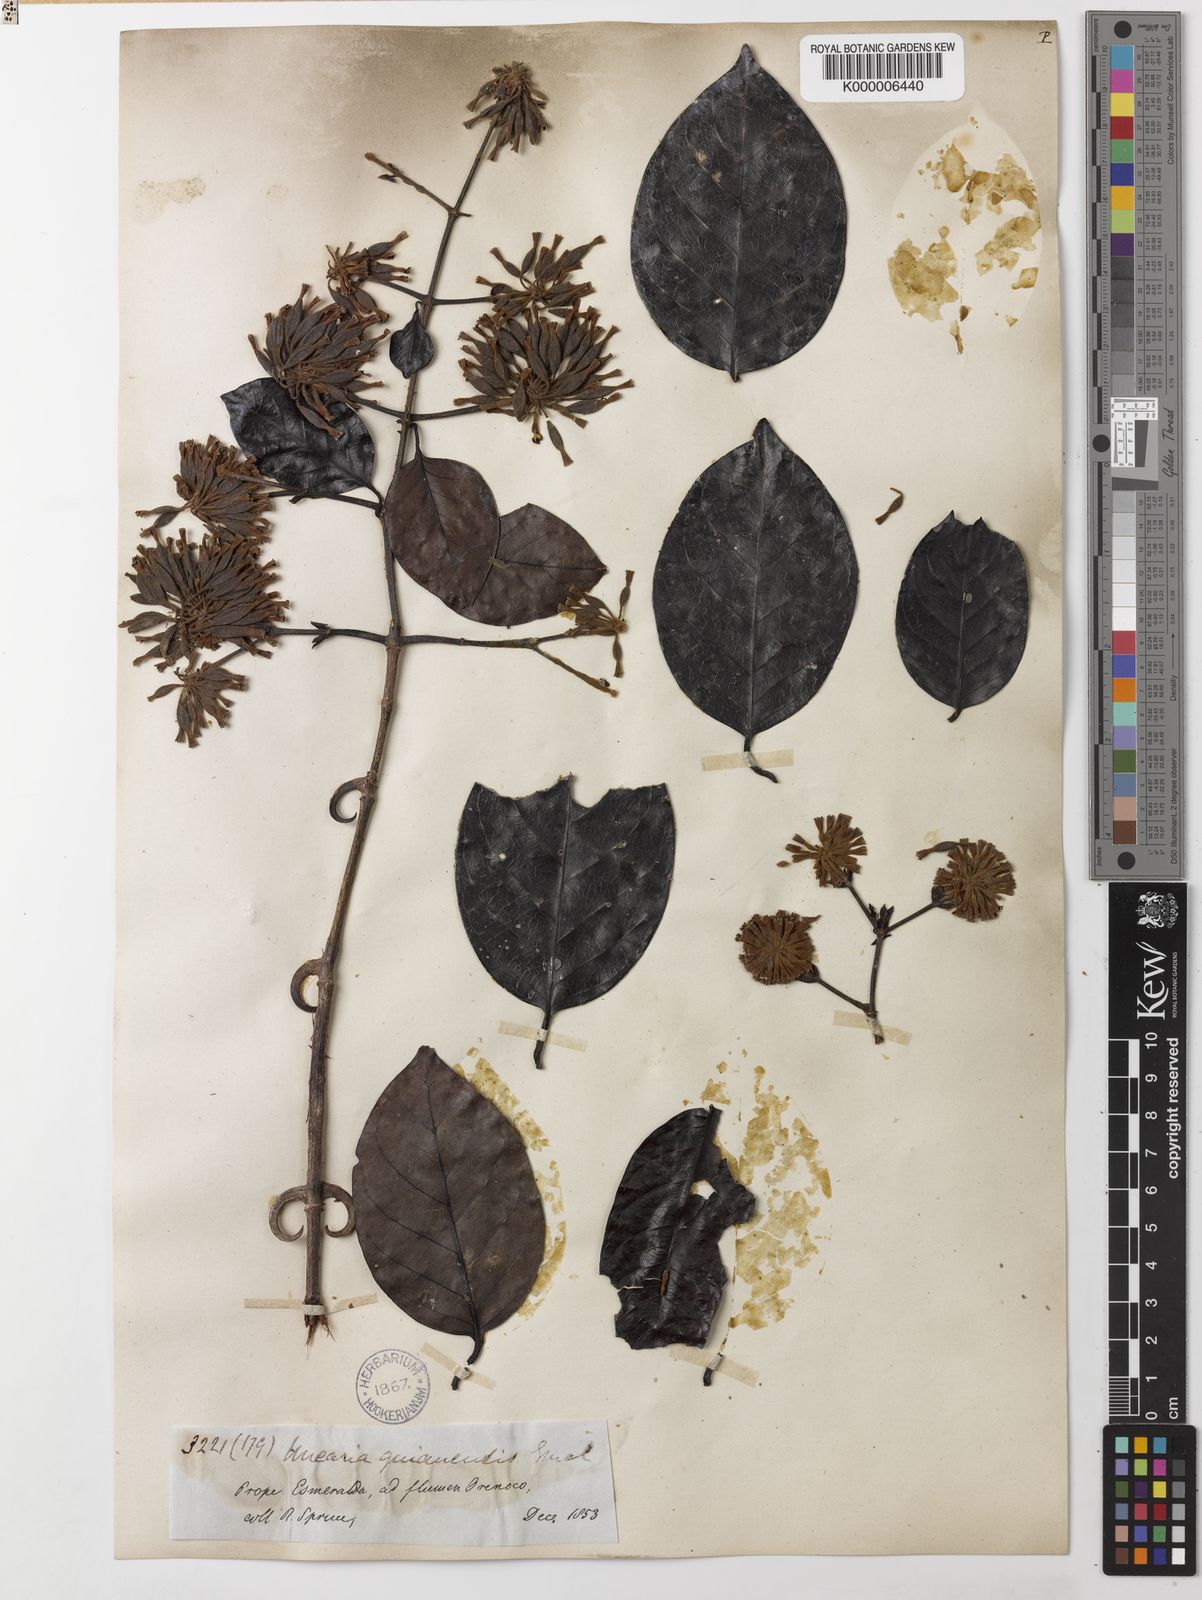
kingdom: Plantae
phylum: Tracheophyta
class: Magnoliopsida
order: Gentianales
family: Rubiaceae
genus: Uncaria
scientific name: Uncaria
